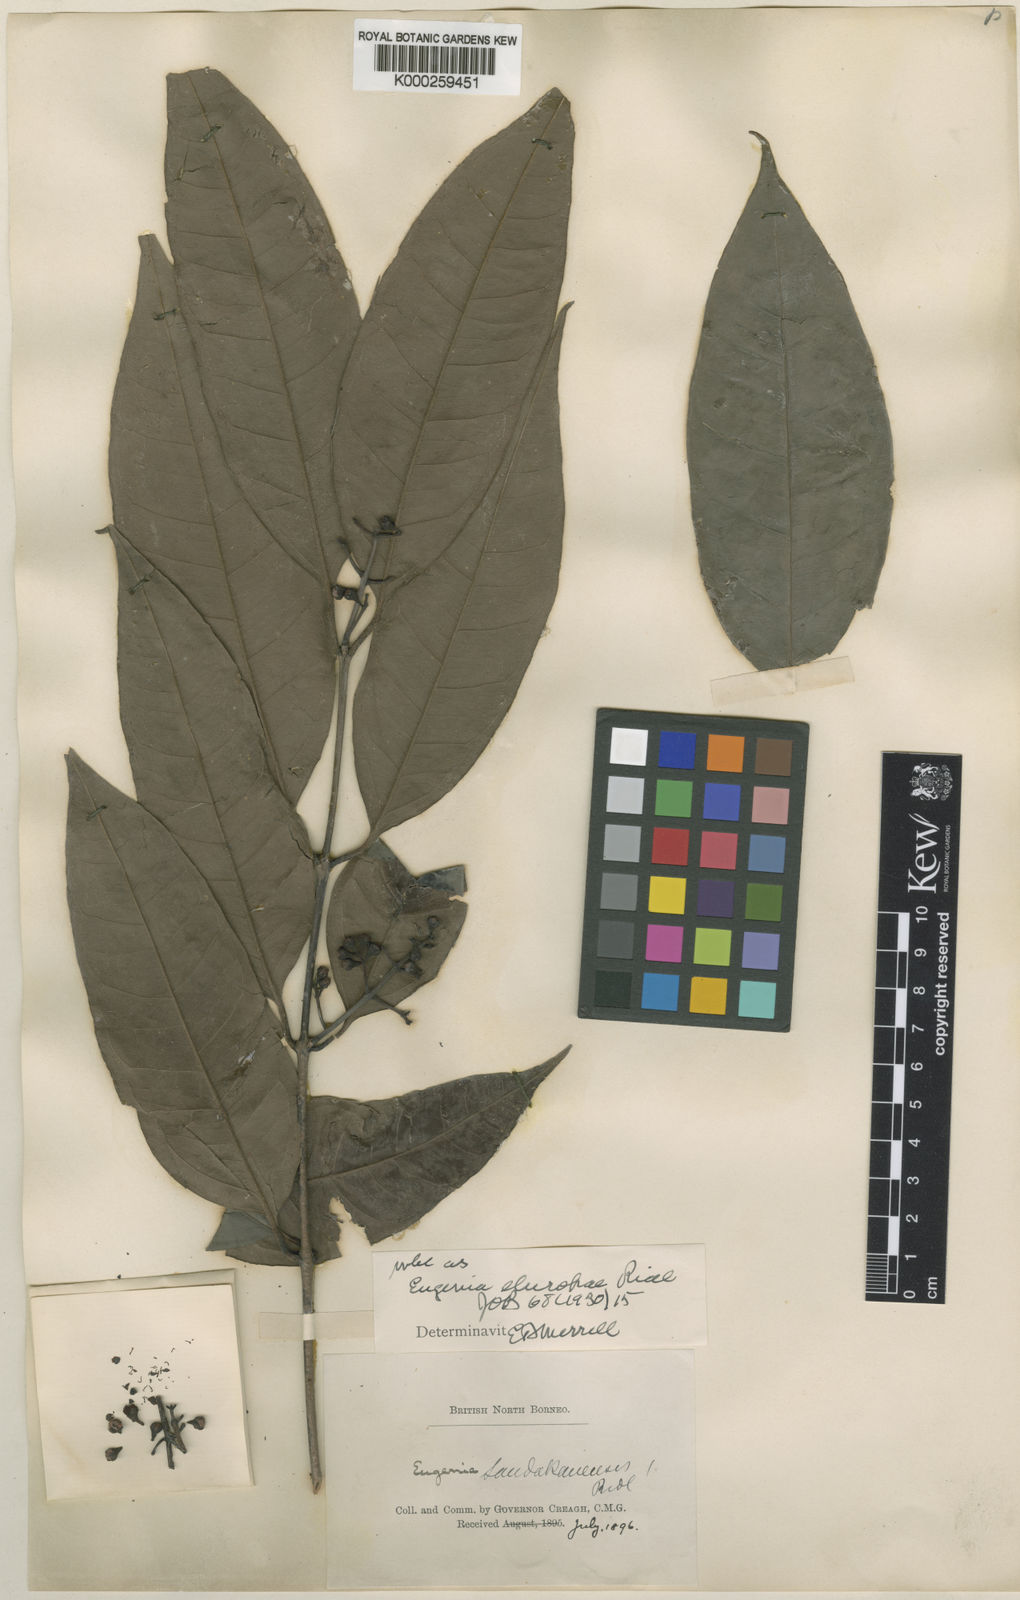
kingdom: Plantae
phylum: Tracheophyta
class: Magnoliopsida
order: Myrtales
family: Myrtaceae
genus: Syzygium
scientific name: Syzygium elopurae
